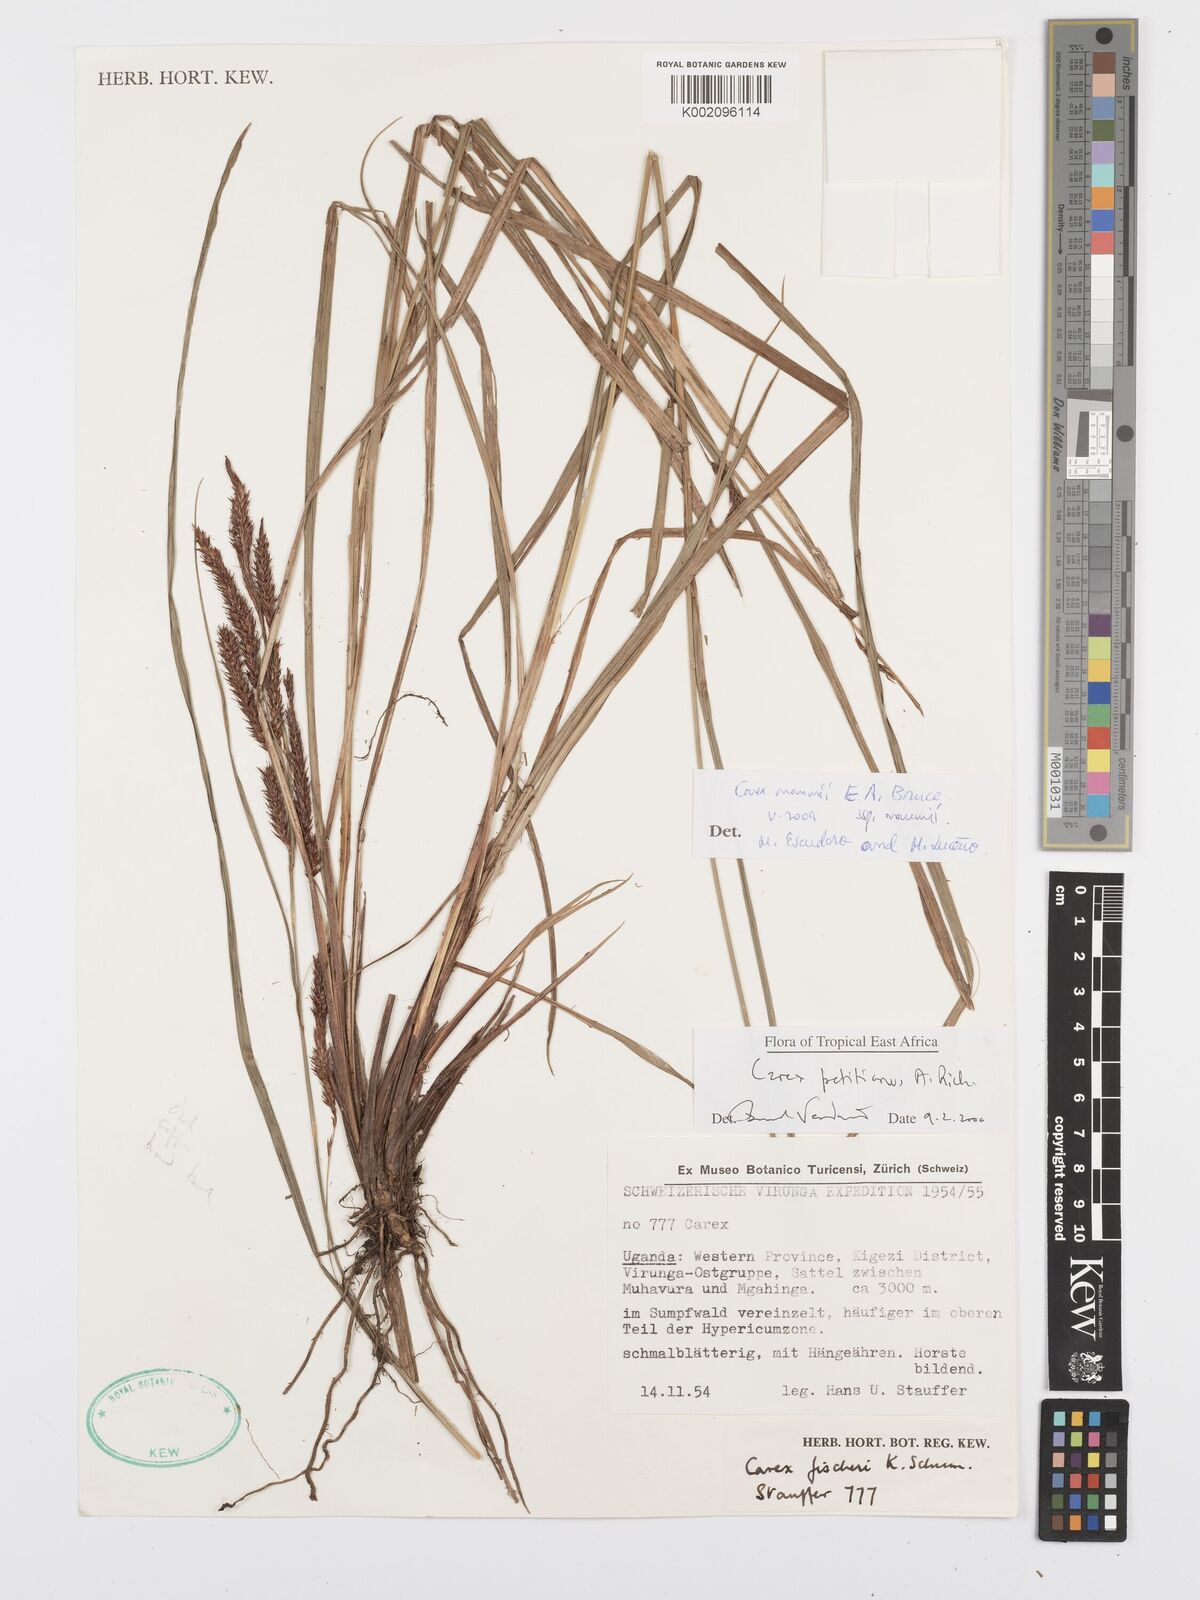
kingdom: Plantae
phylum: Tracheophyta
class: Liliopsida
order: Poales
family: Cyperaceae
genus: Carex
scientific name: Carex mannii
